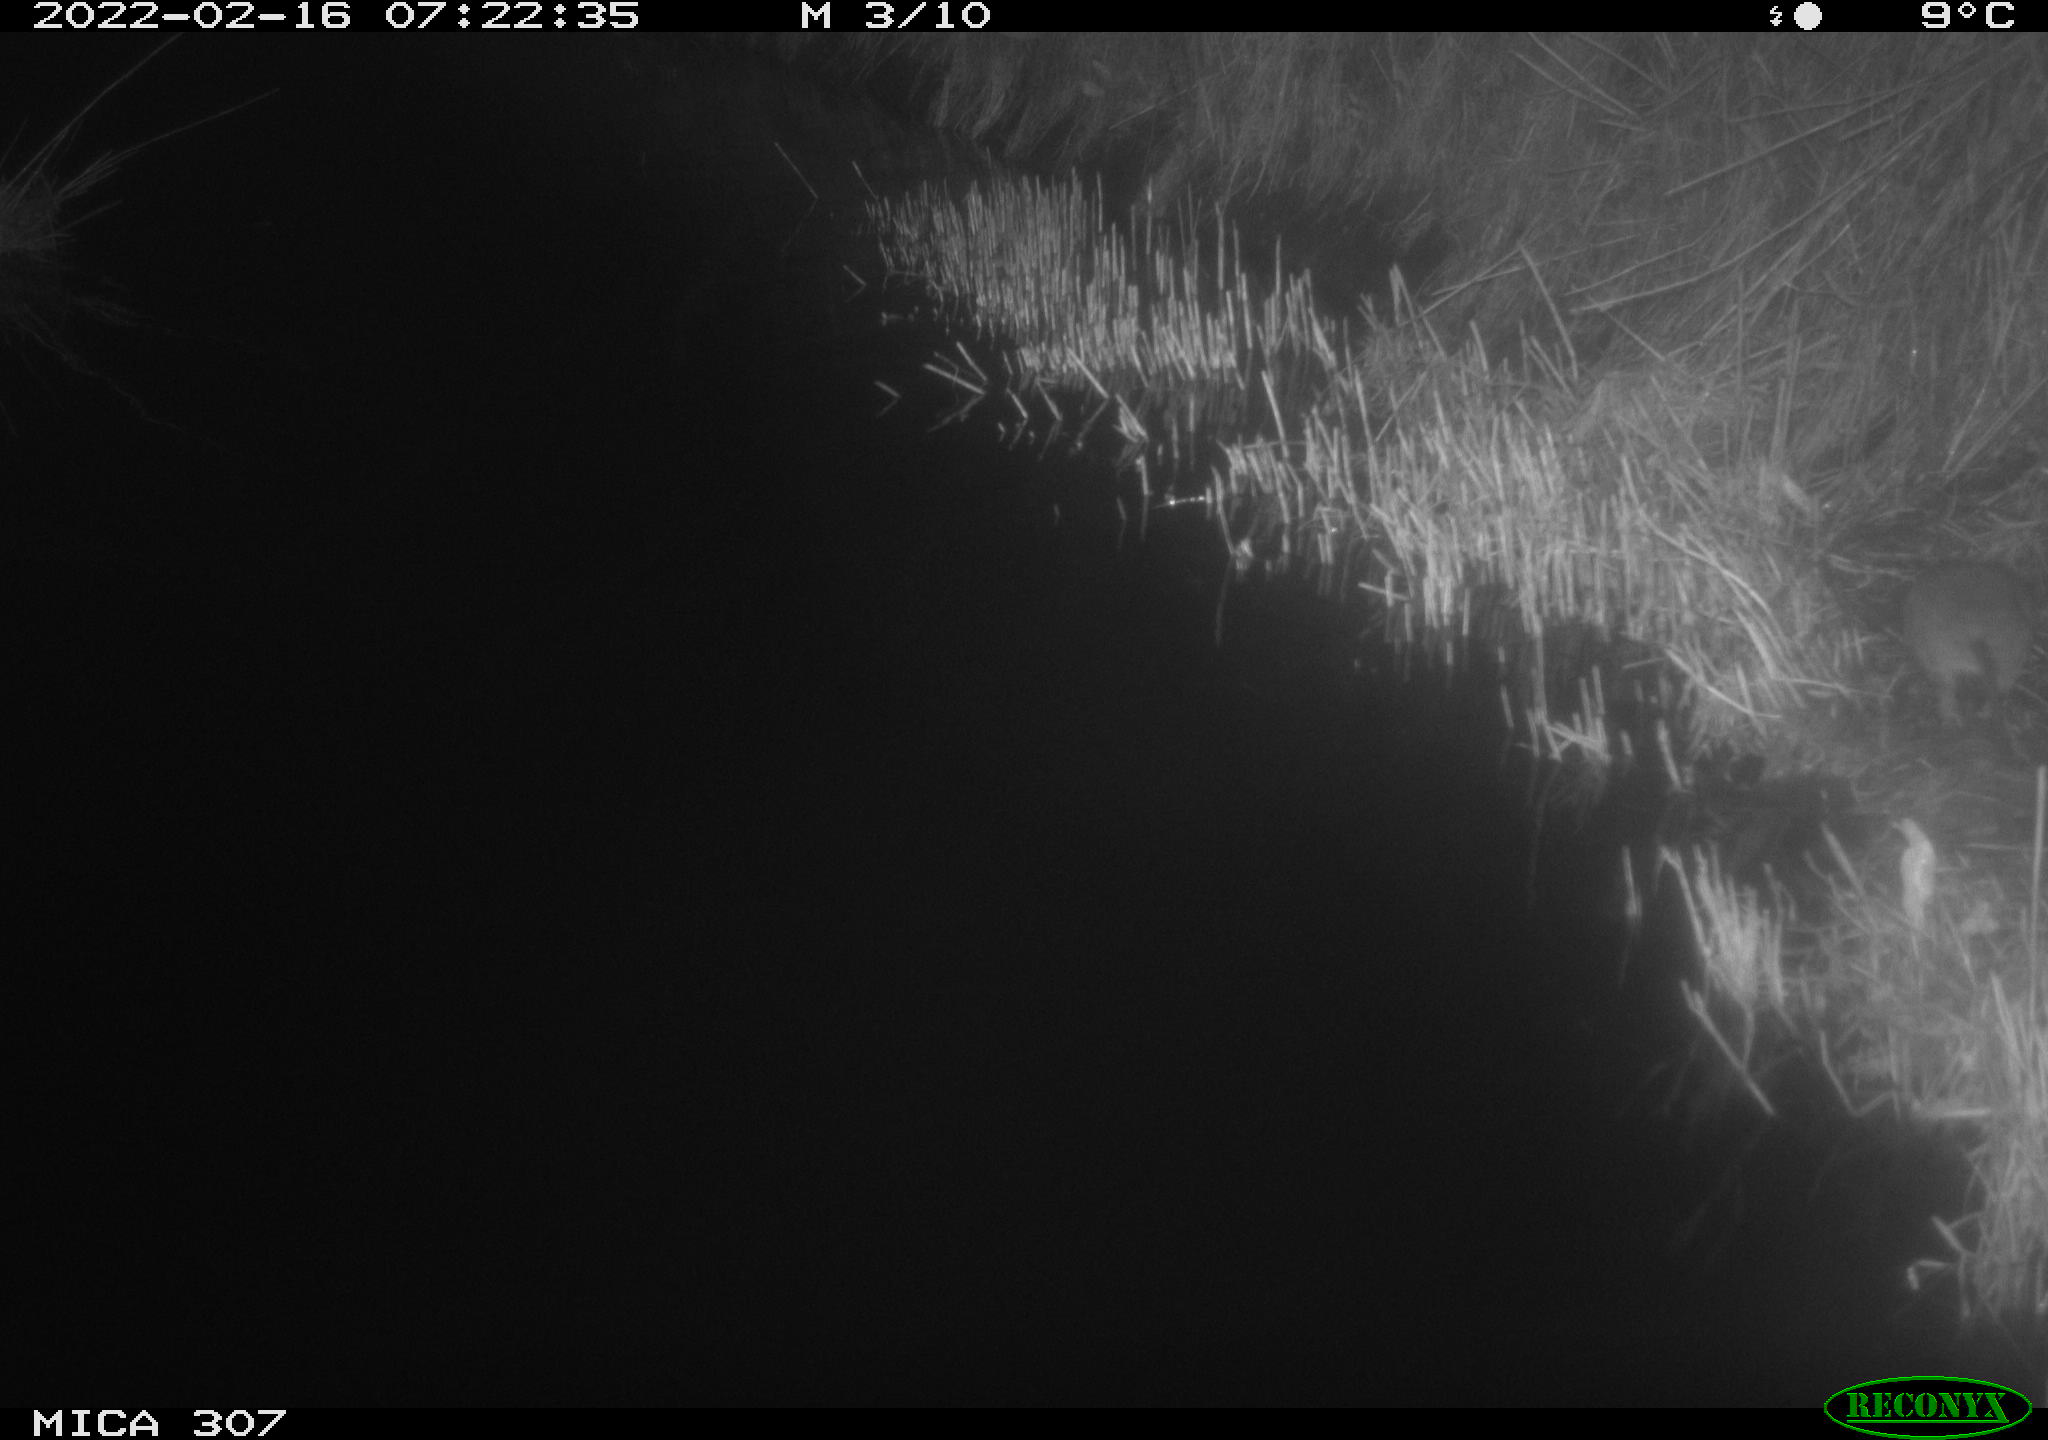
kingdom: Animalia
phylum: Chordata
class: Mammalia
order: Rodentia
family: Muridae
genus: Rattus
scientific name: Rattus norvegicus
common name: Brown rat
